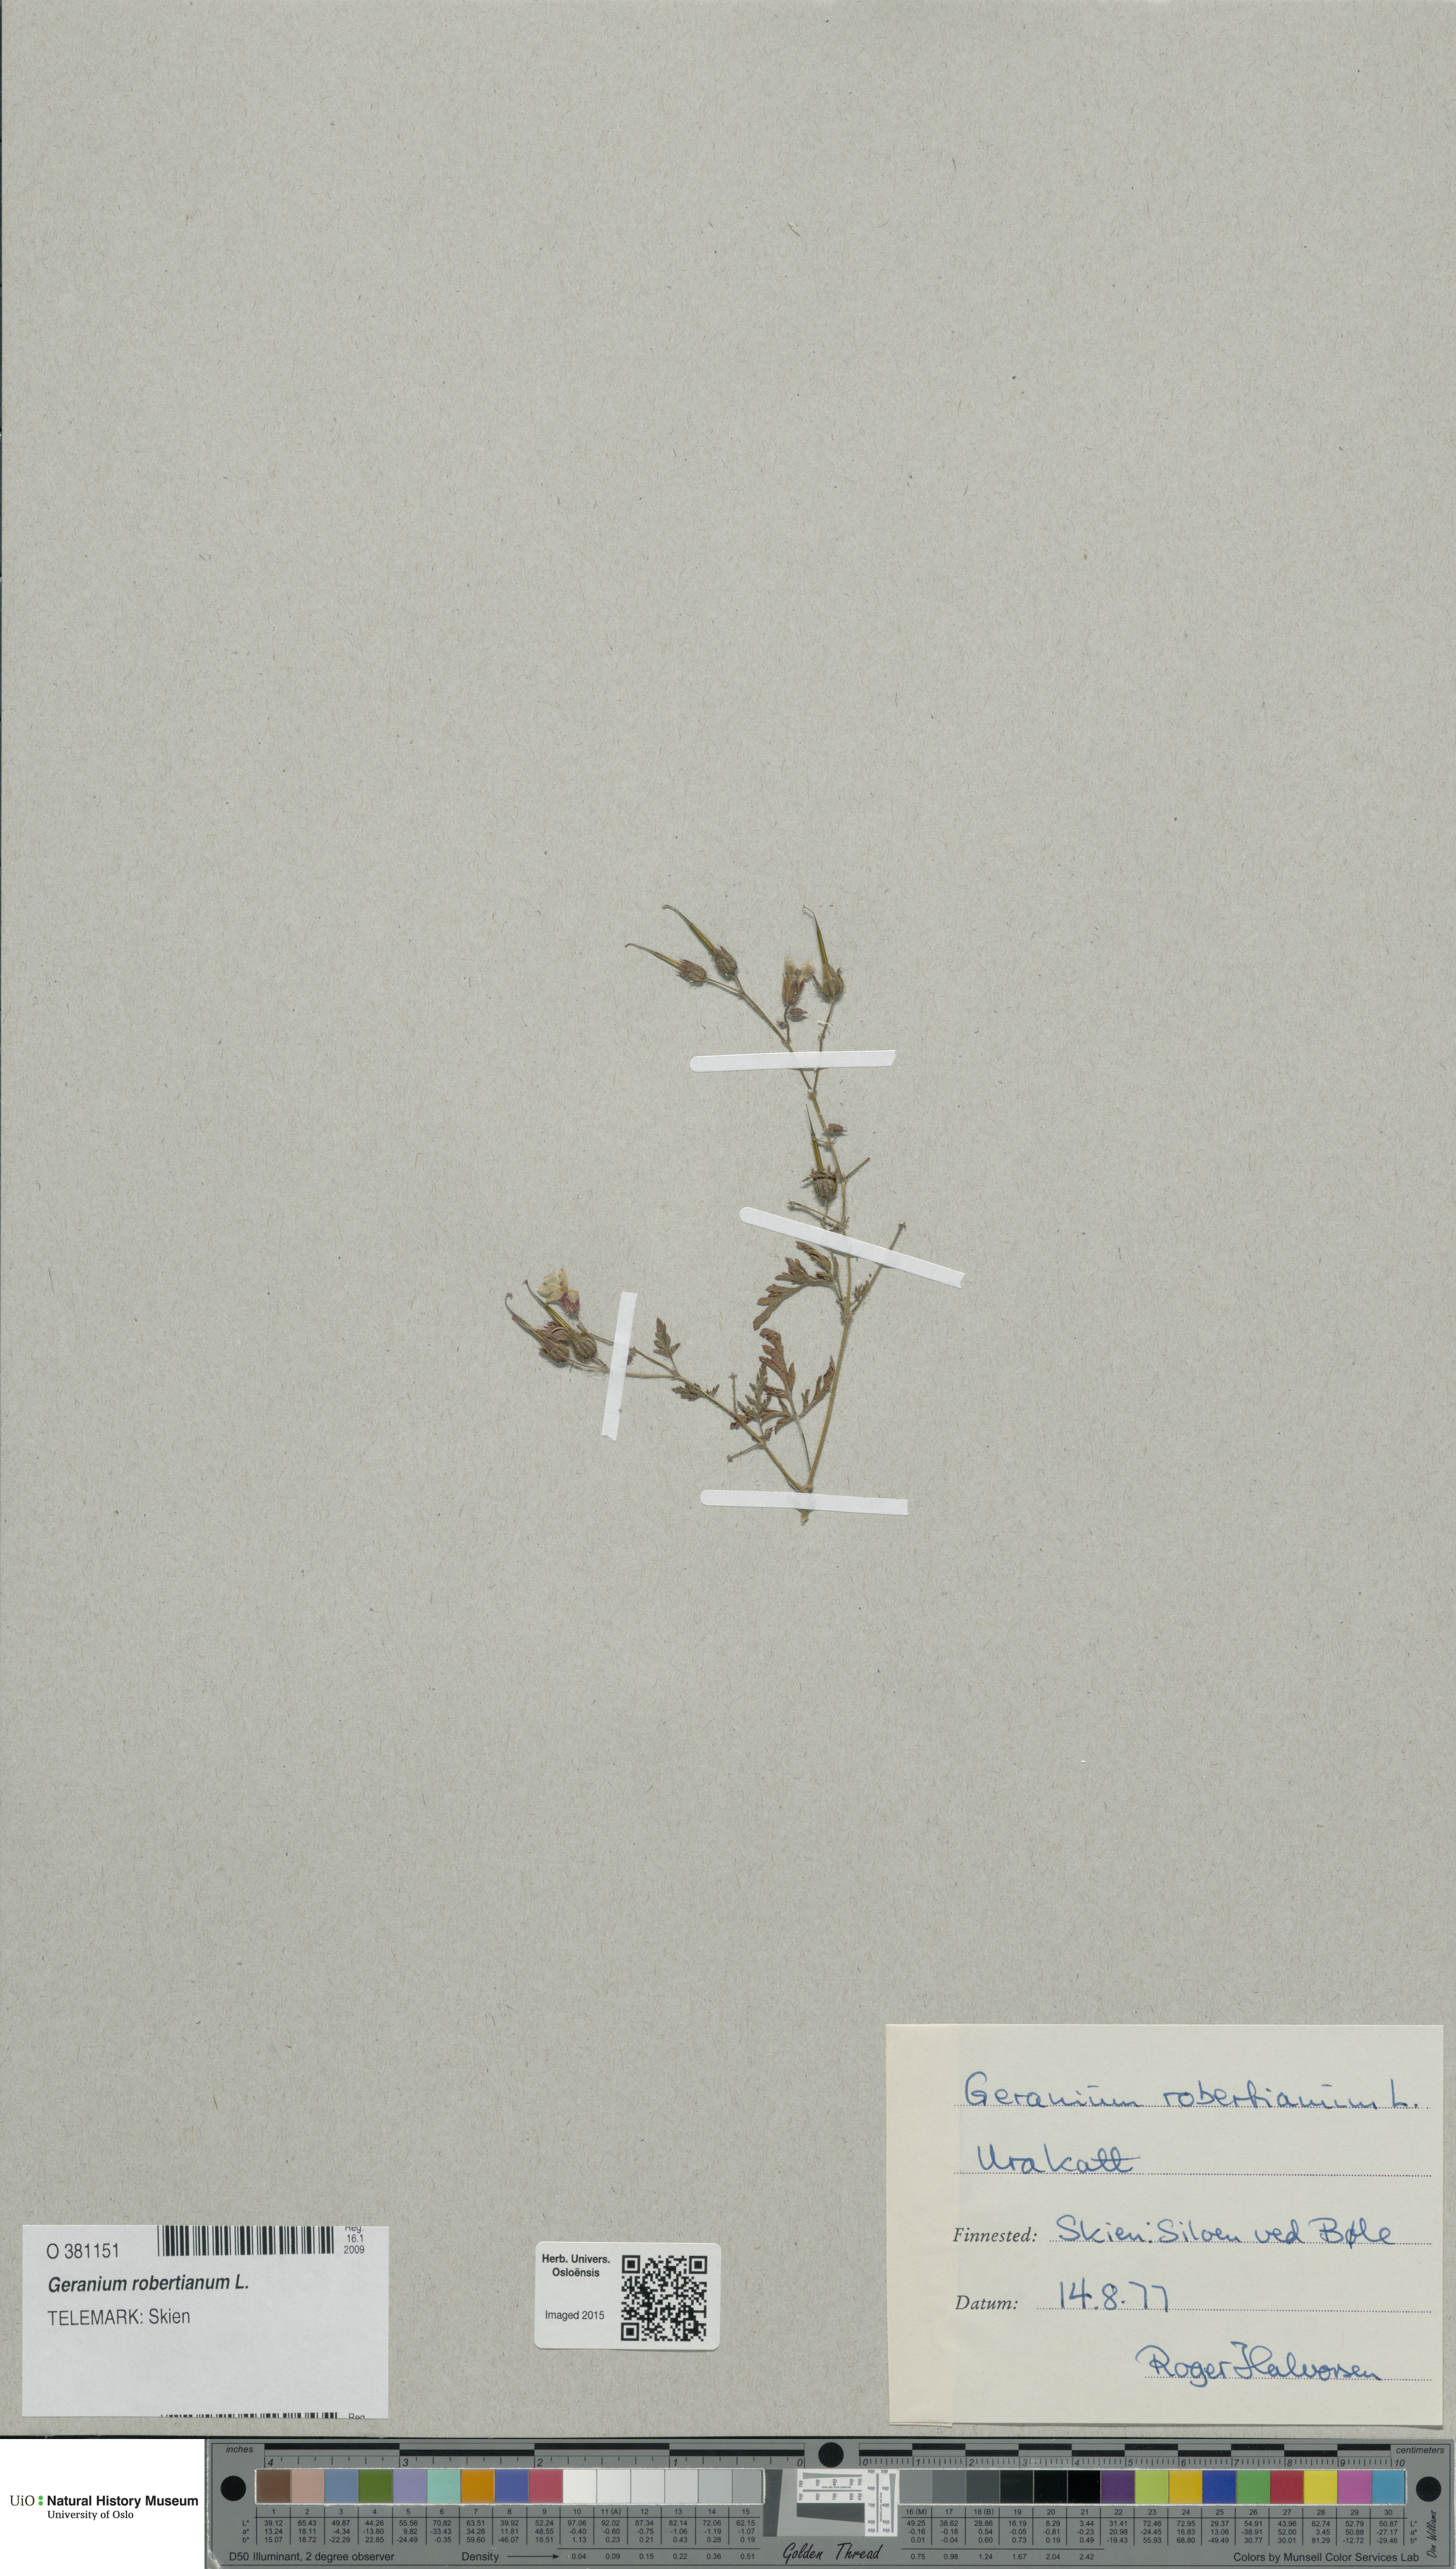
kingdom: Plantae
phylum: Tracheophyta
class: Magnoliopsida
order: Geraniales
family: Geraniaceae
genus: Geranium
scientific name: Geranium robertianum
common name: Herb-robert
